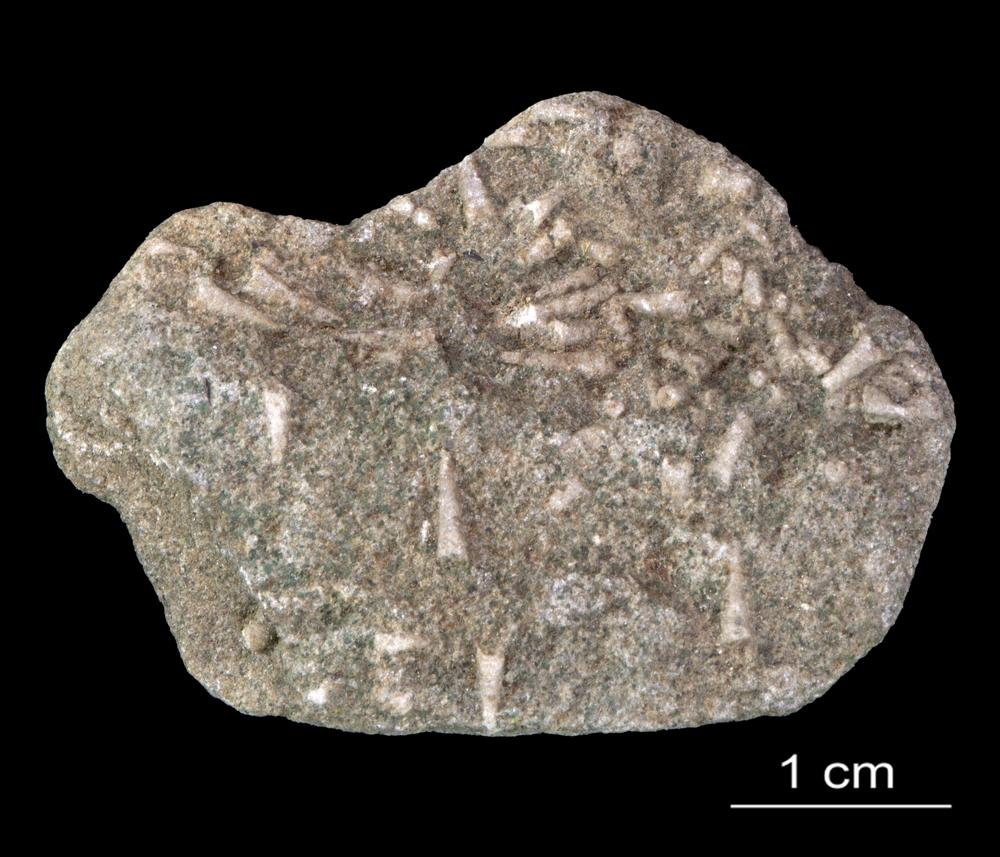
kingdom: Animalia
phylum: Annelida
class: Polychaeta
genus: Volborthella
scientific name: Volborthella tenuis
